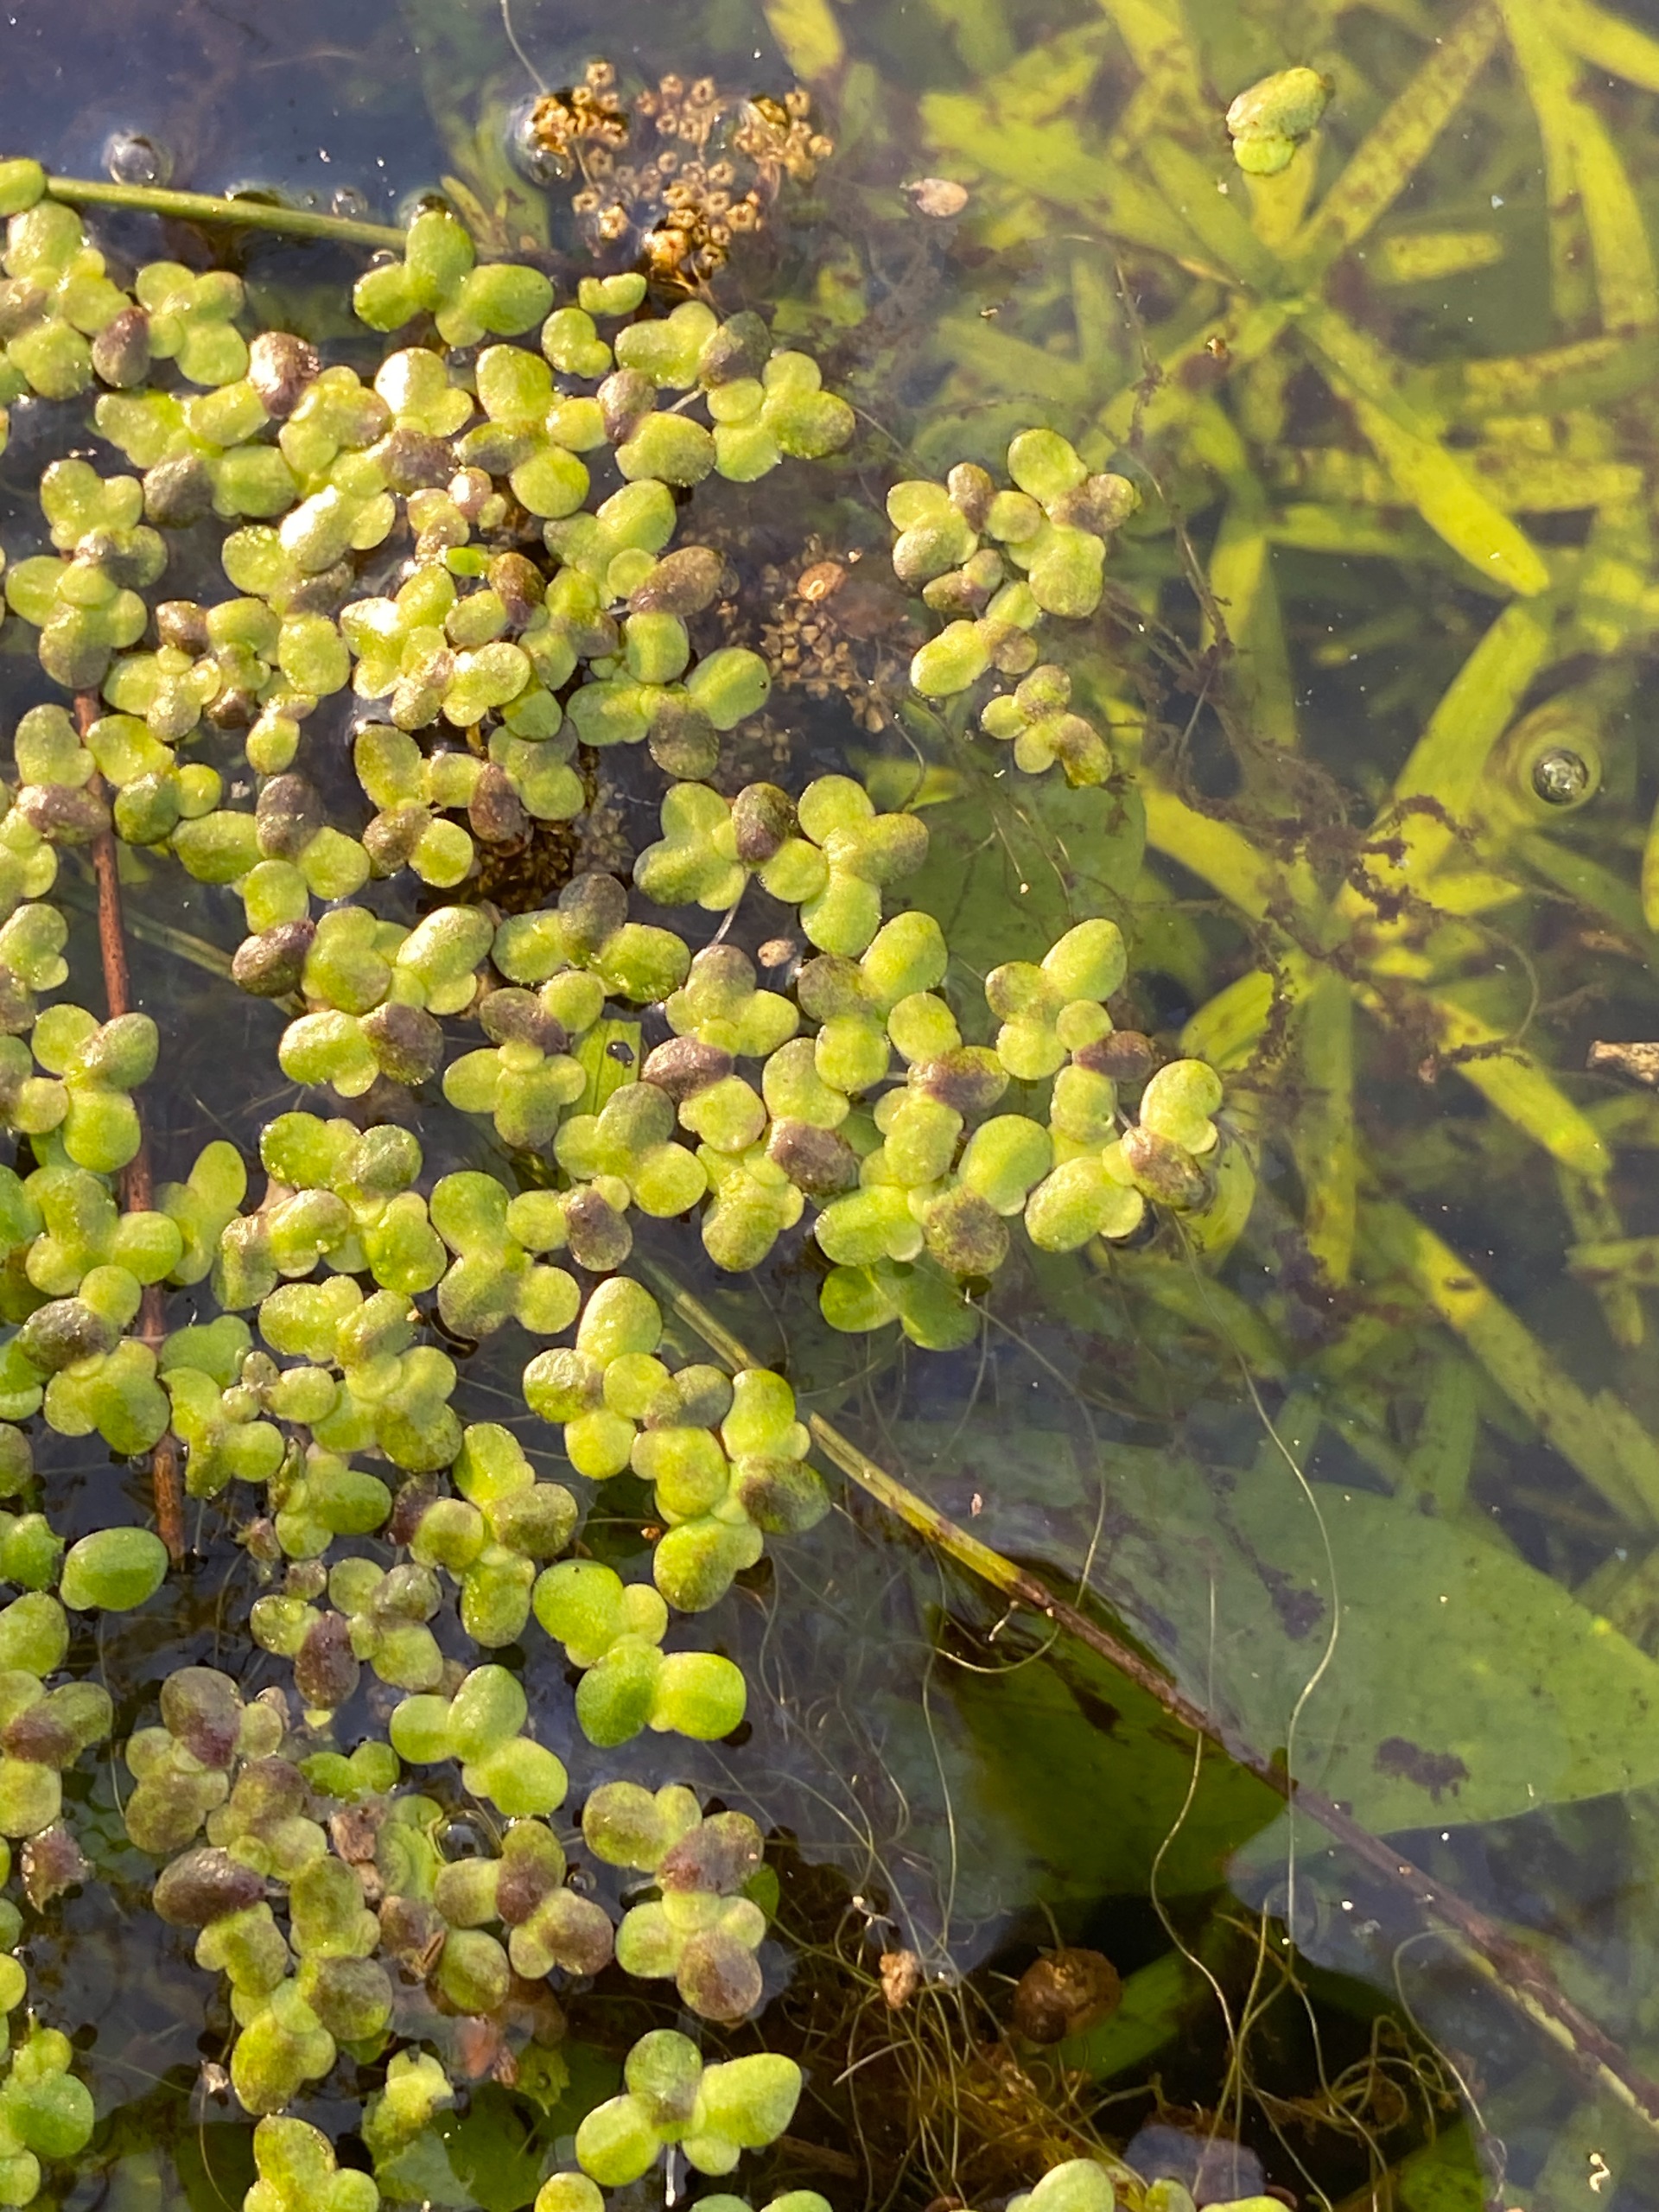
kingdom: Plantae
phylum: Tracheophyta
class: Liliopsida
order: Alismatales
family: Araceae
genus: Lemna
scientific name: Lemna minor
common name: Liden andemad
